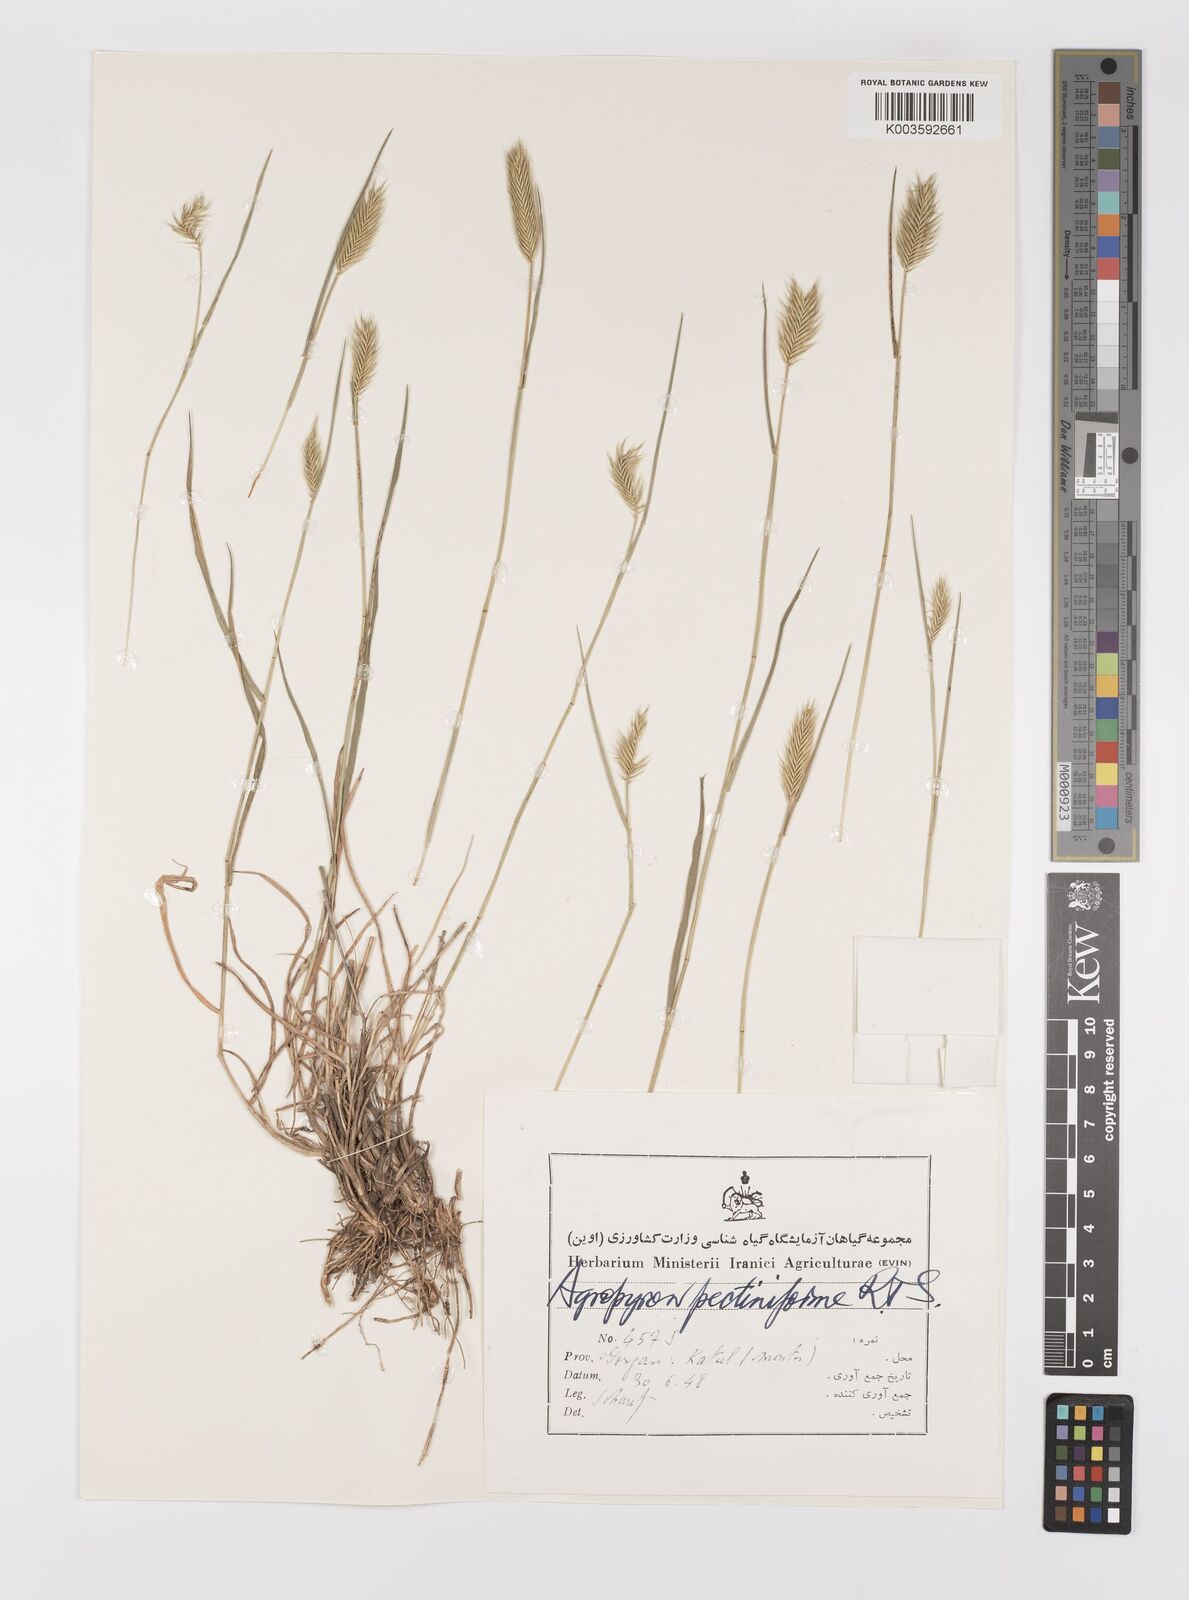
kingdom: Plantae
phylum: Tracheophyta
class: Liliopsida
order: Poales
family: Poaceae
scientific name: Poaceae
